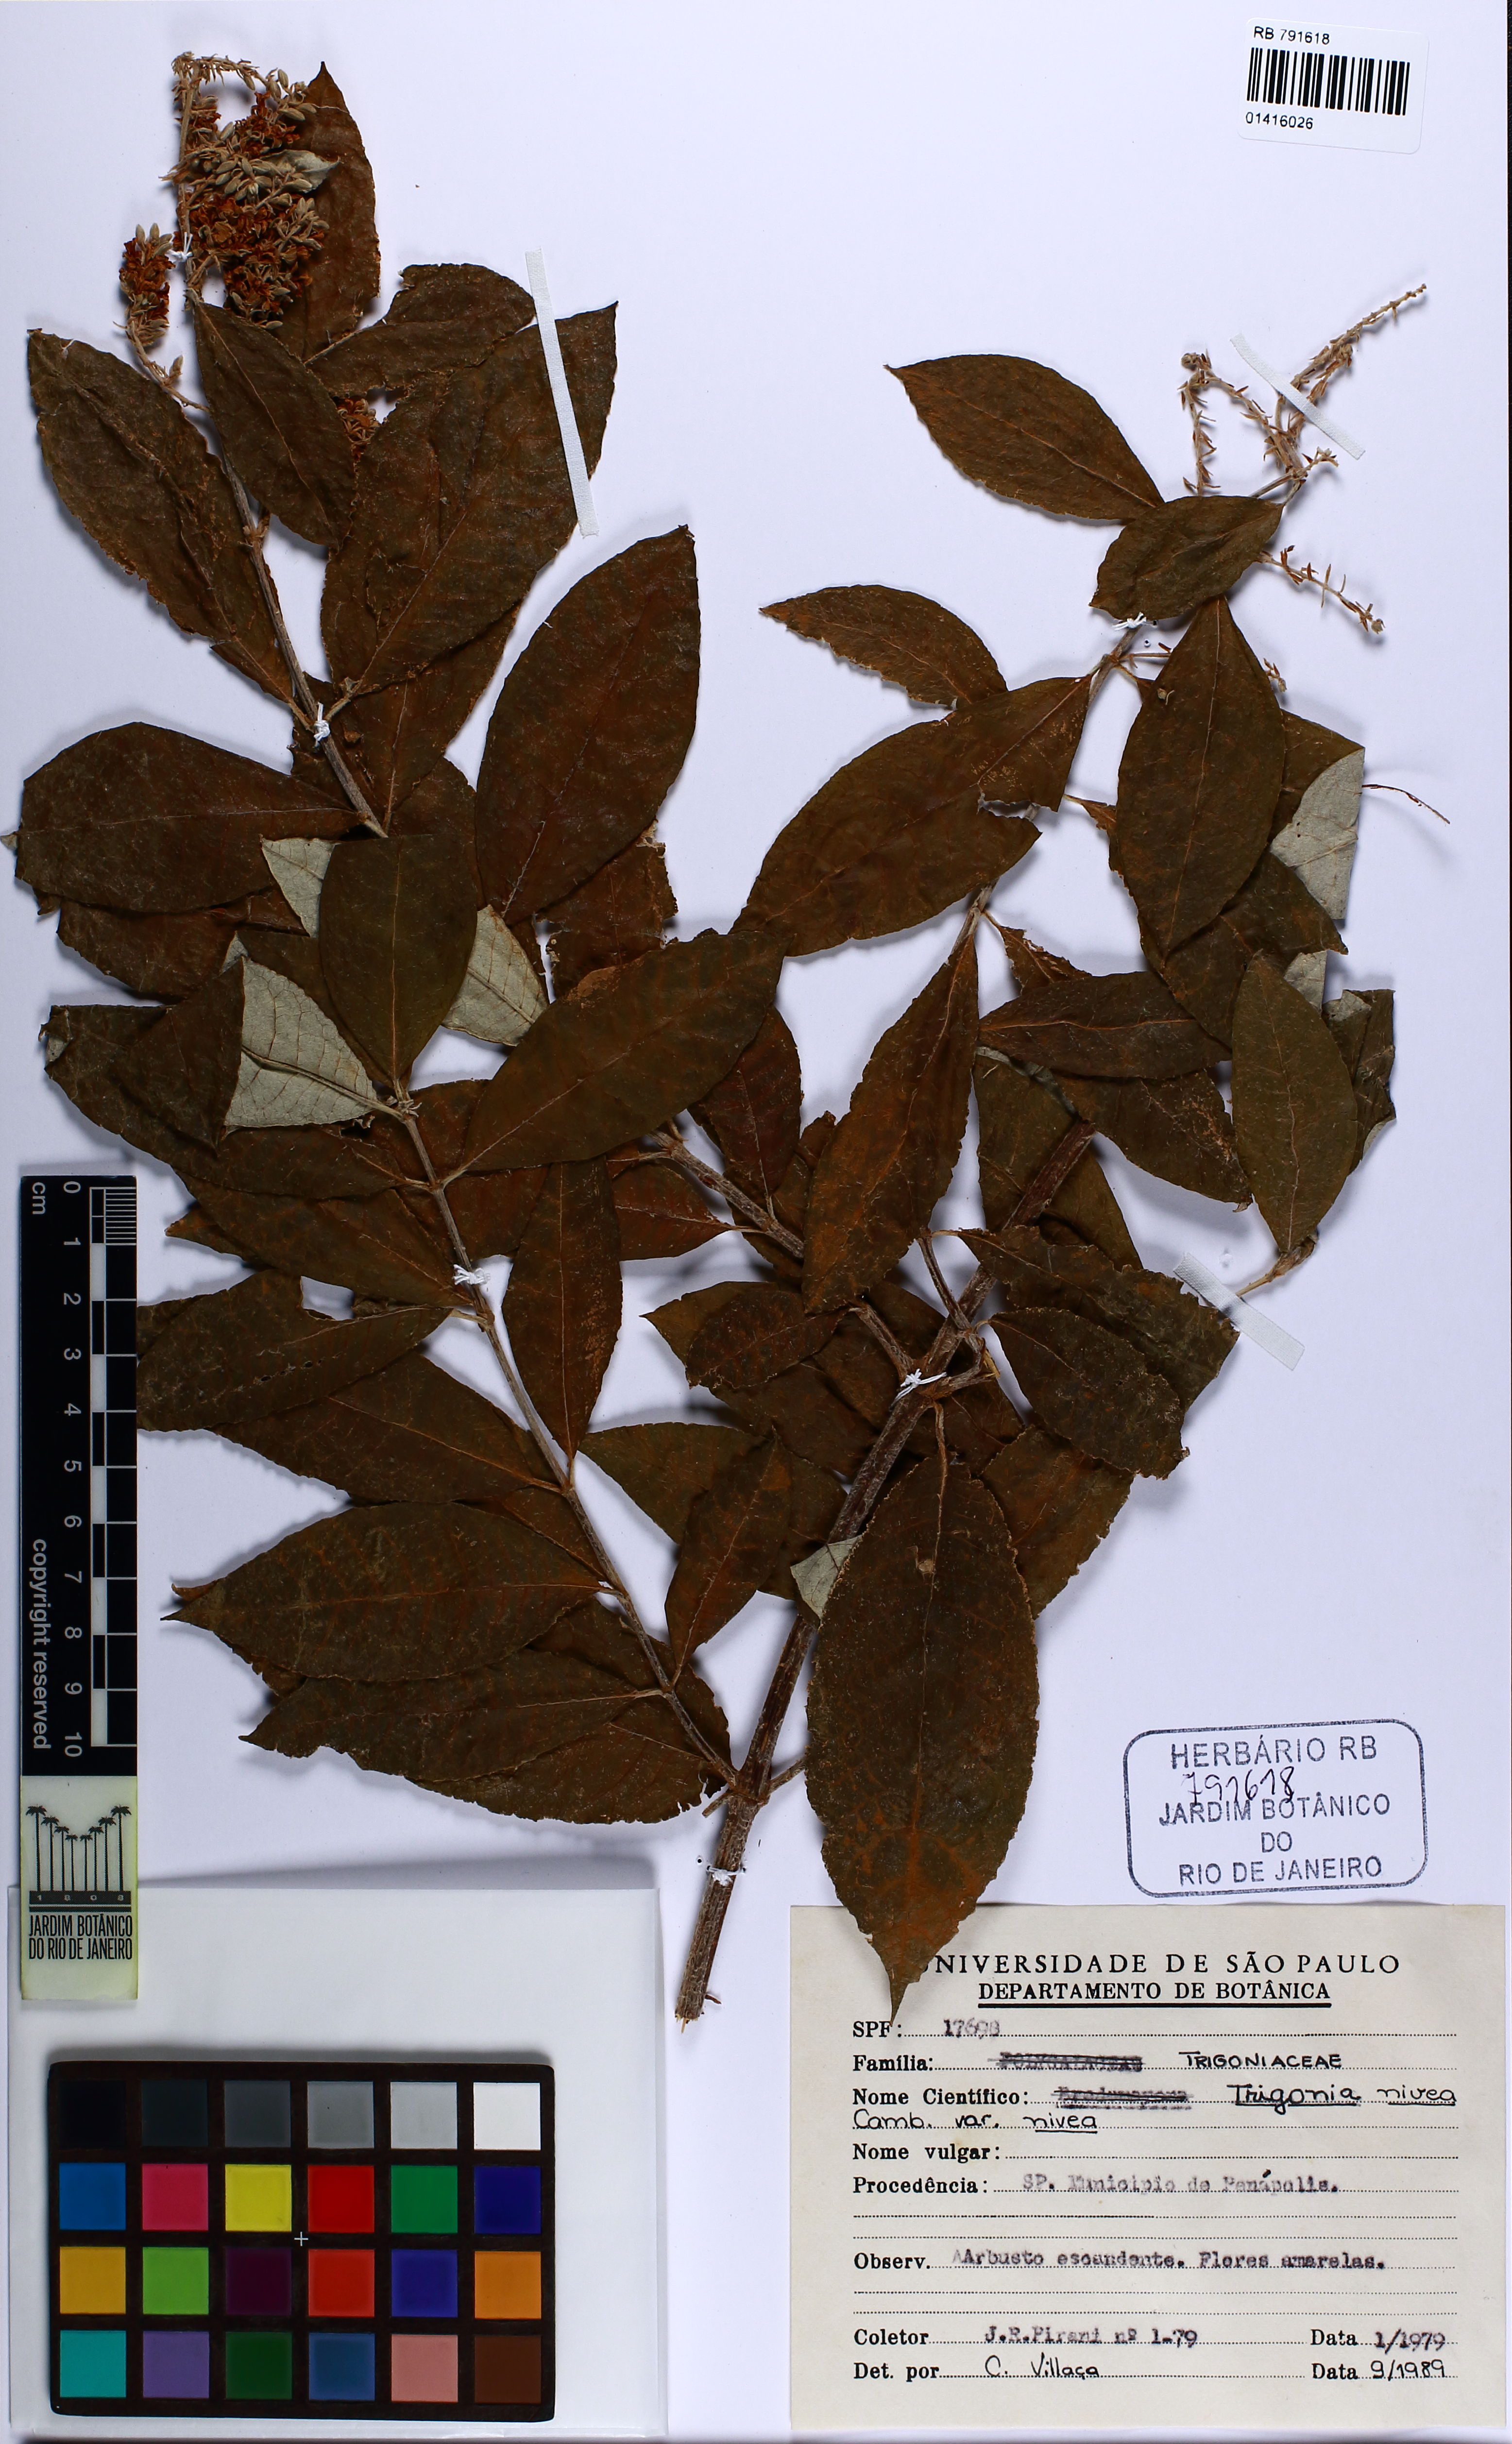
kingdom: Plantae
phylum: Tracheophyta
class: Magnoliopsida
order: Malpighiales
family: Trigoniaceae
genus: Trigonia
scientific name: Trigonia nivea
